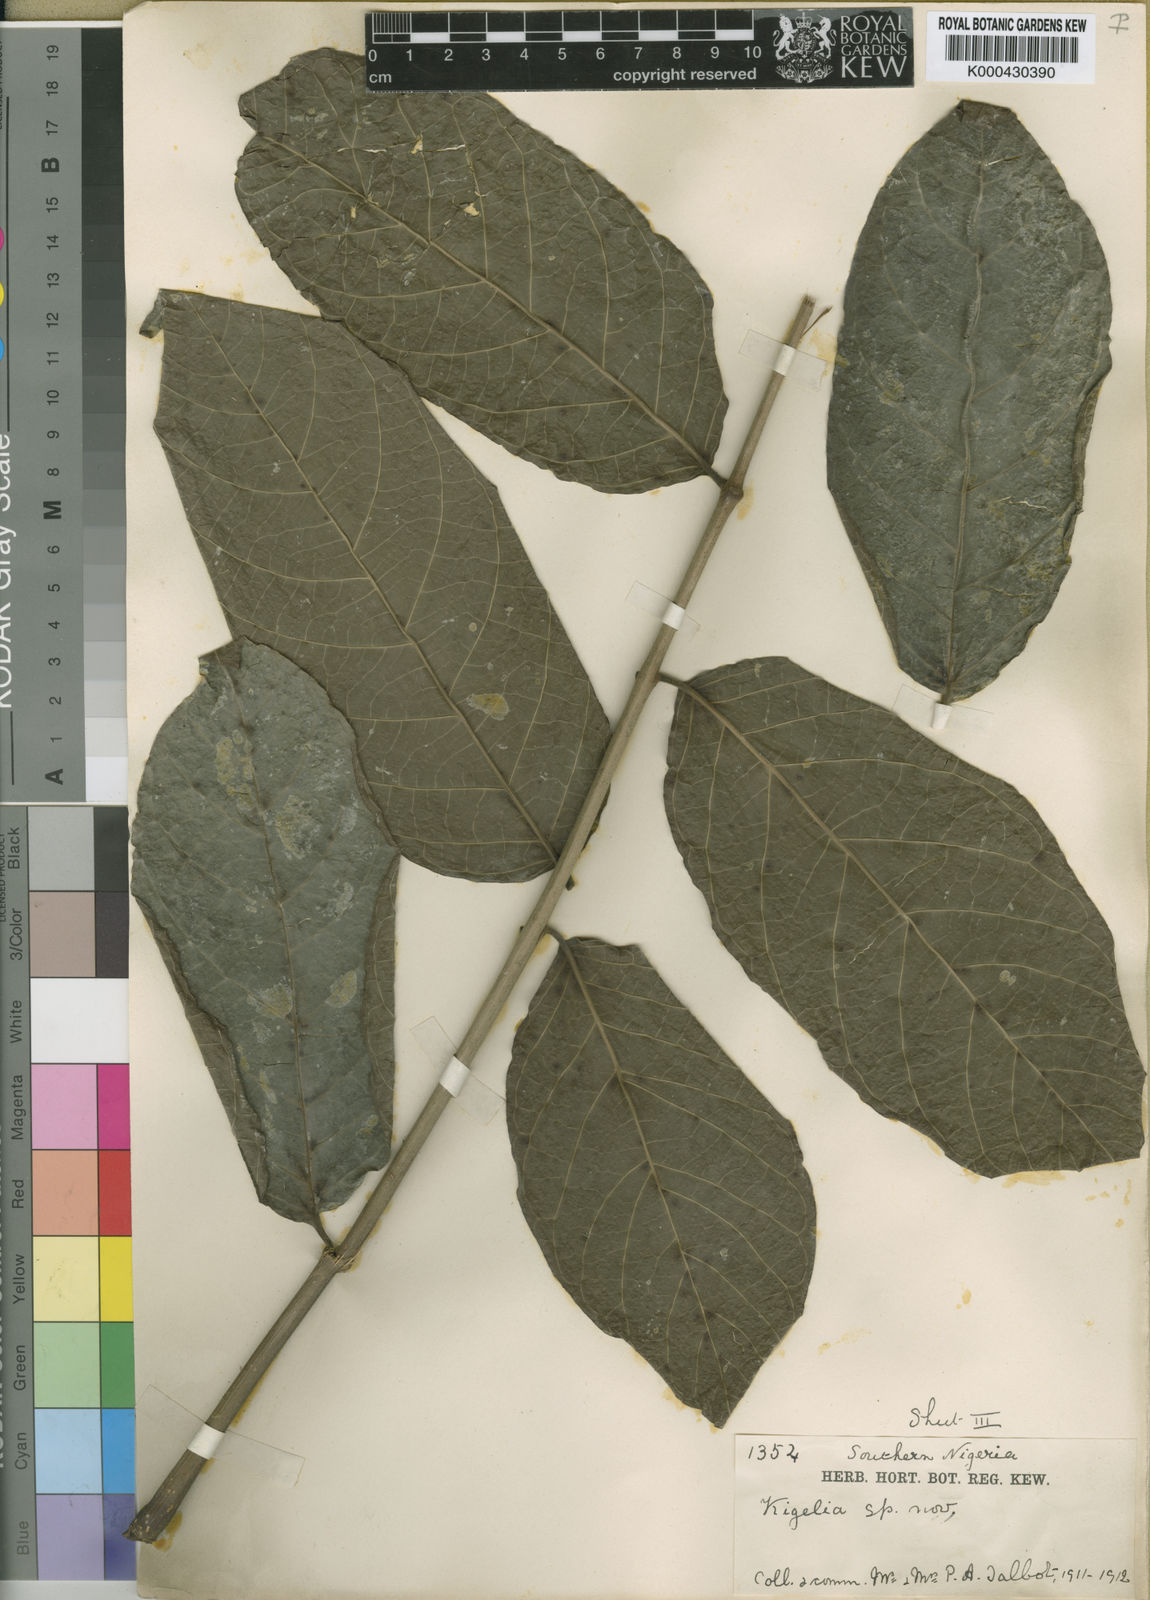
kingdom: Plantae
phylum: Tracheophyta
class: Magnoliopsida
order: Lamiales
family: Bignoniaceae
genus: Kigelia
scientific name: Kigelia africana
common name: Sausage tree
